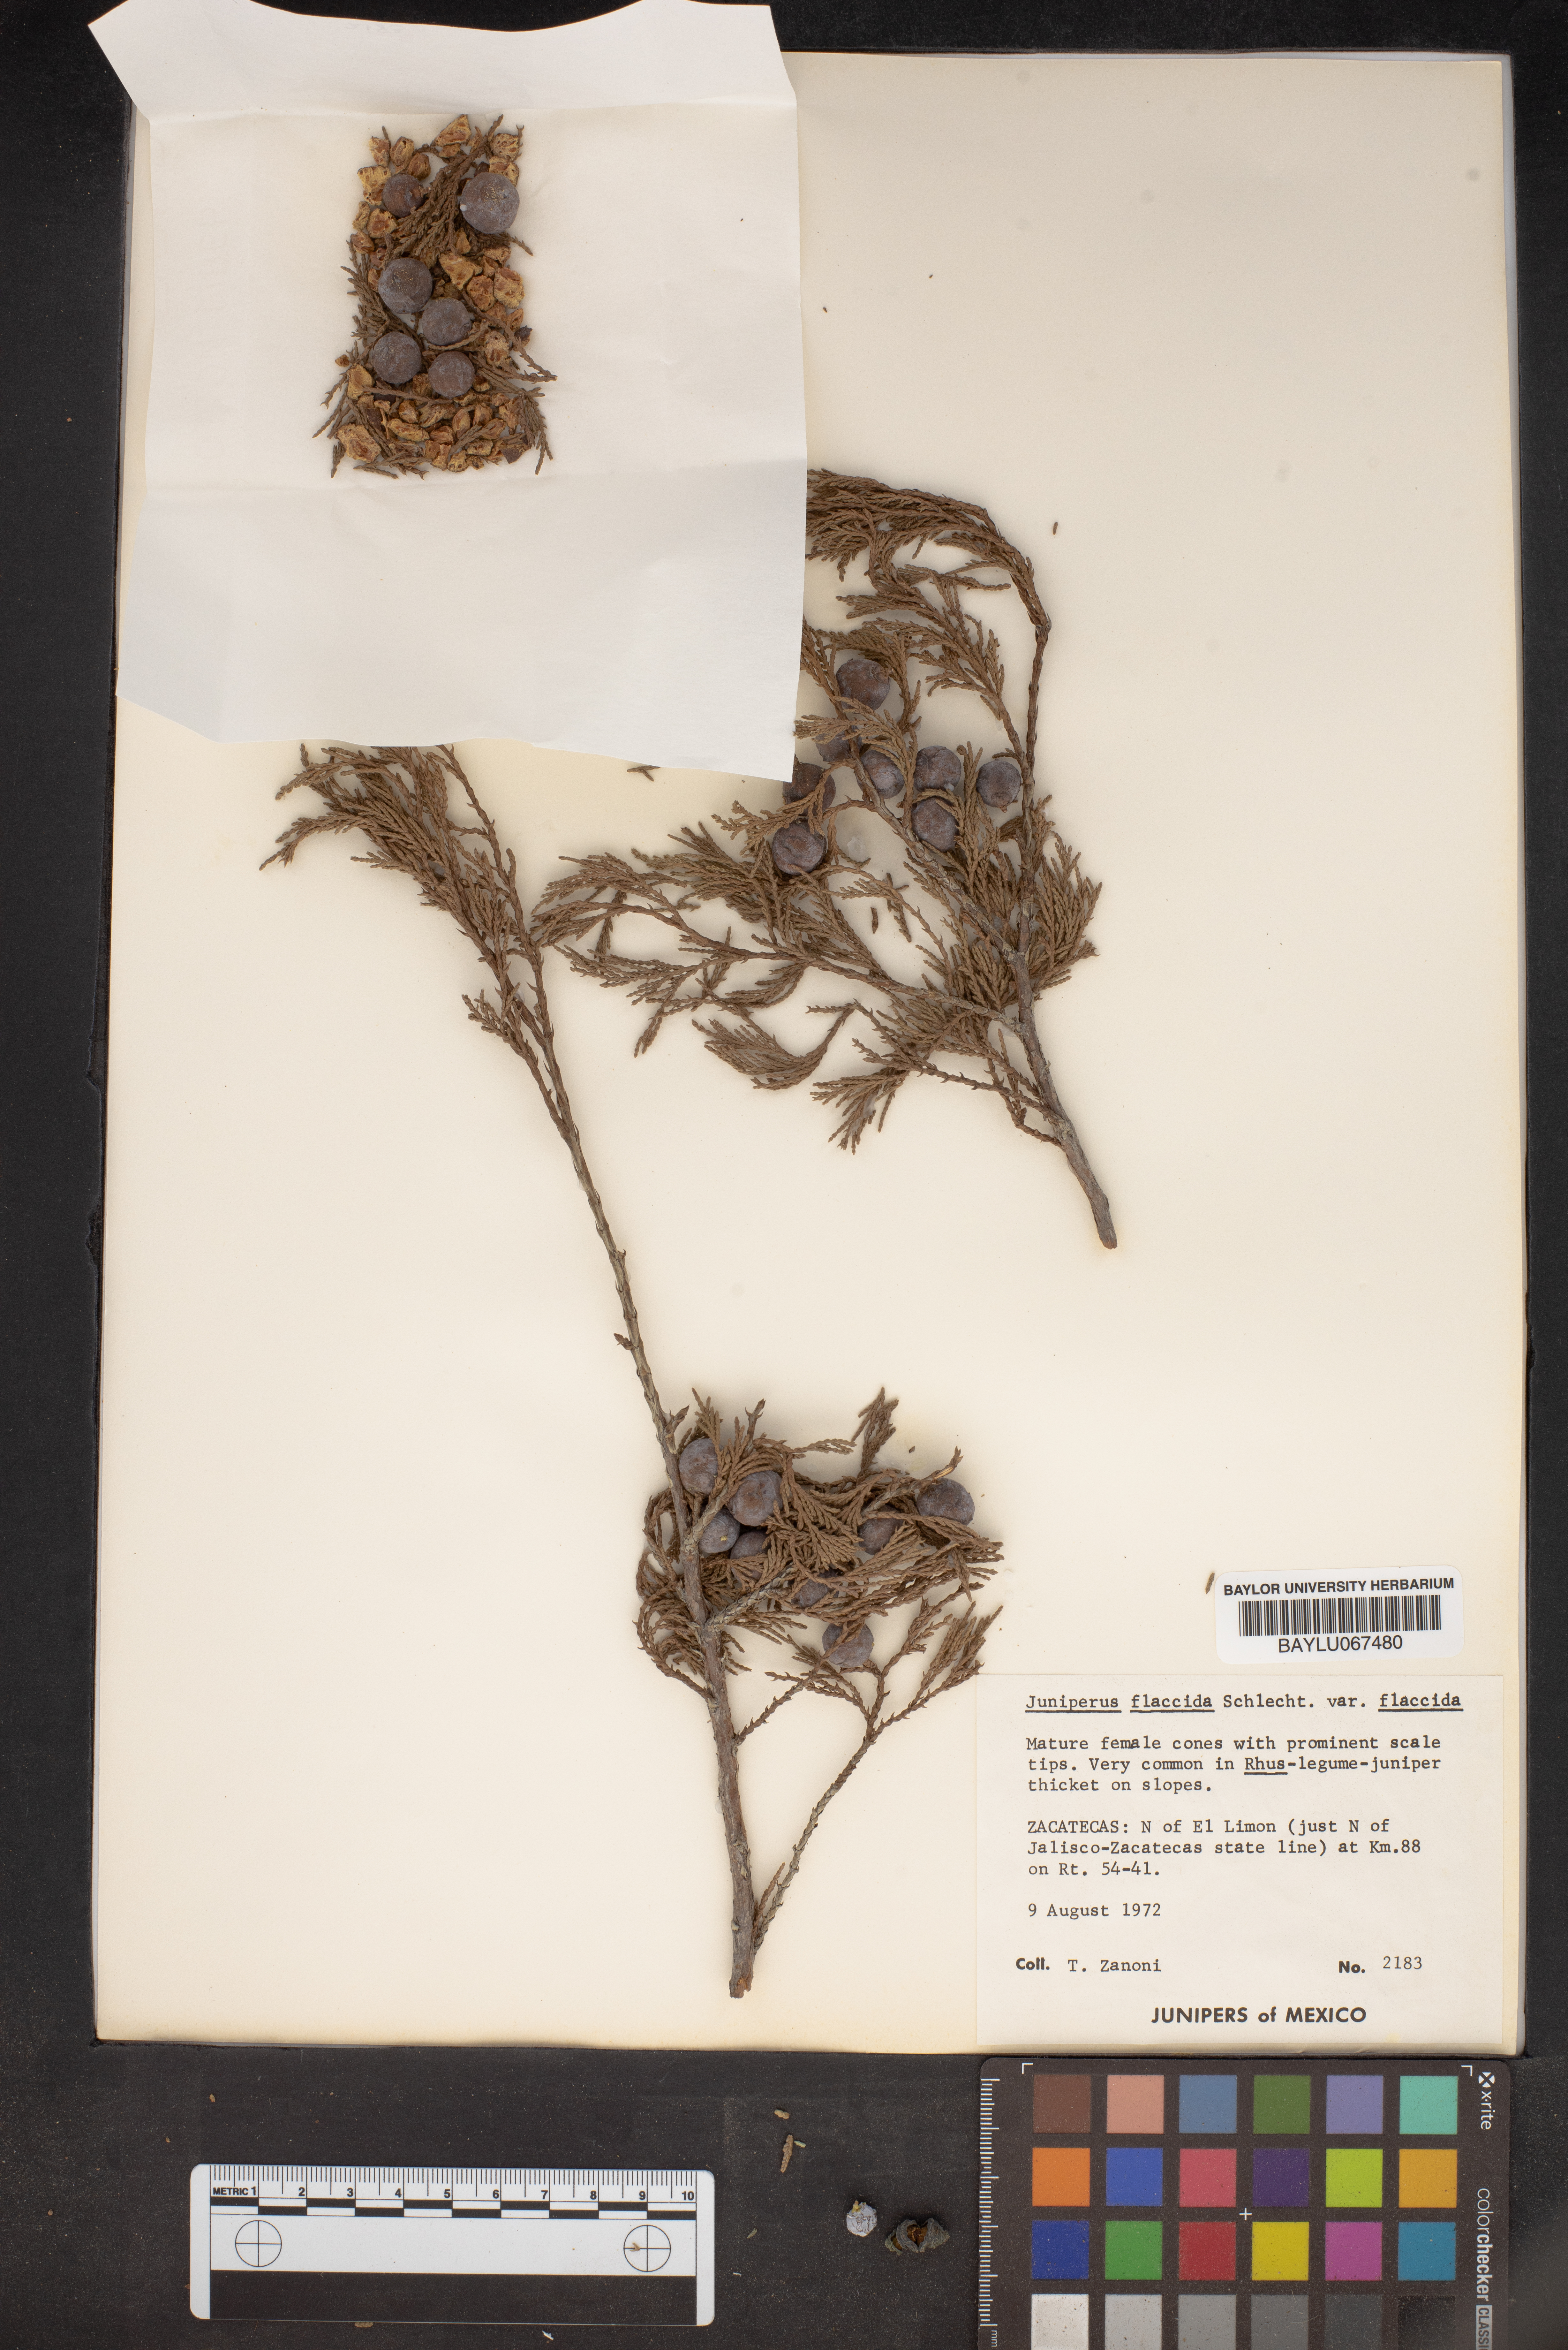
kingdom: Plantae
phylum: Tracheophyta
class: Pinopsida
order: Pinales
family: Cupressaceae
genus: Juniperus
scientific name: Juniperus flaccida
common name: Drooping juniper
